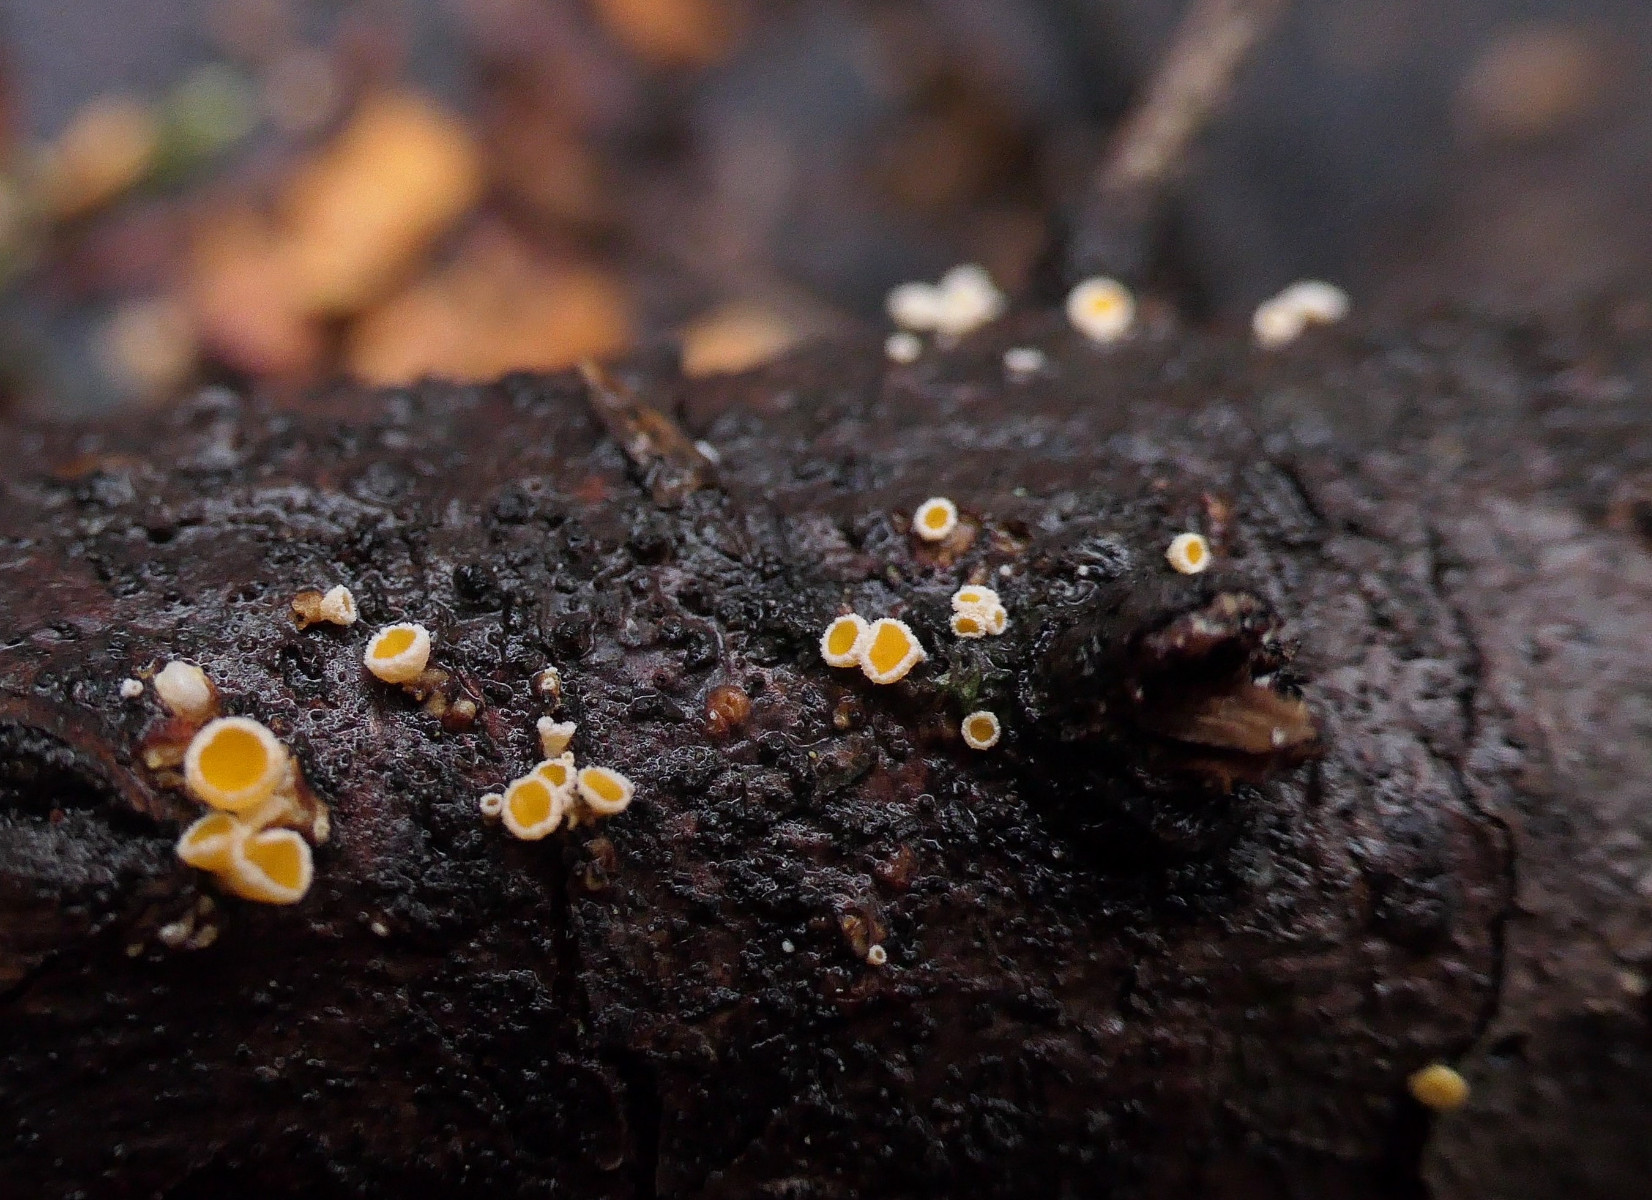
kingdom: Fungi
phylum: Ascomycota
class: Leotiomycetes
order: Helotiales
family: Lachnaceae
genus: Lachnellula
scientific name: Lachnellula resinaria
